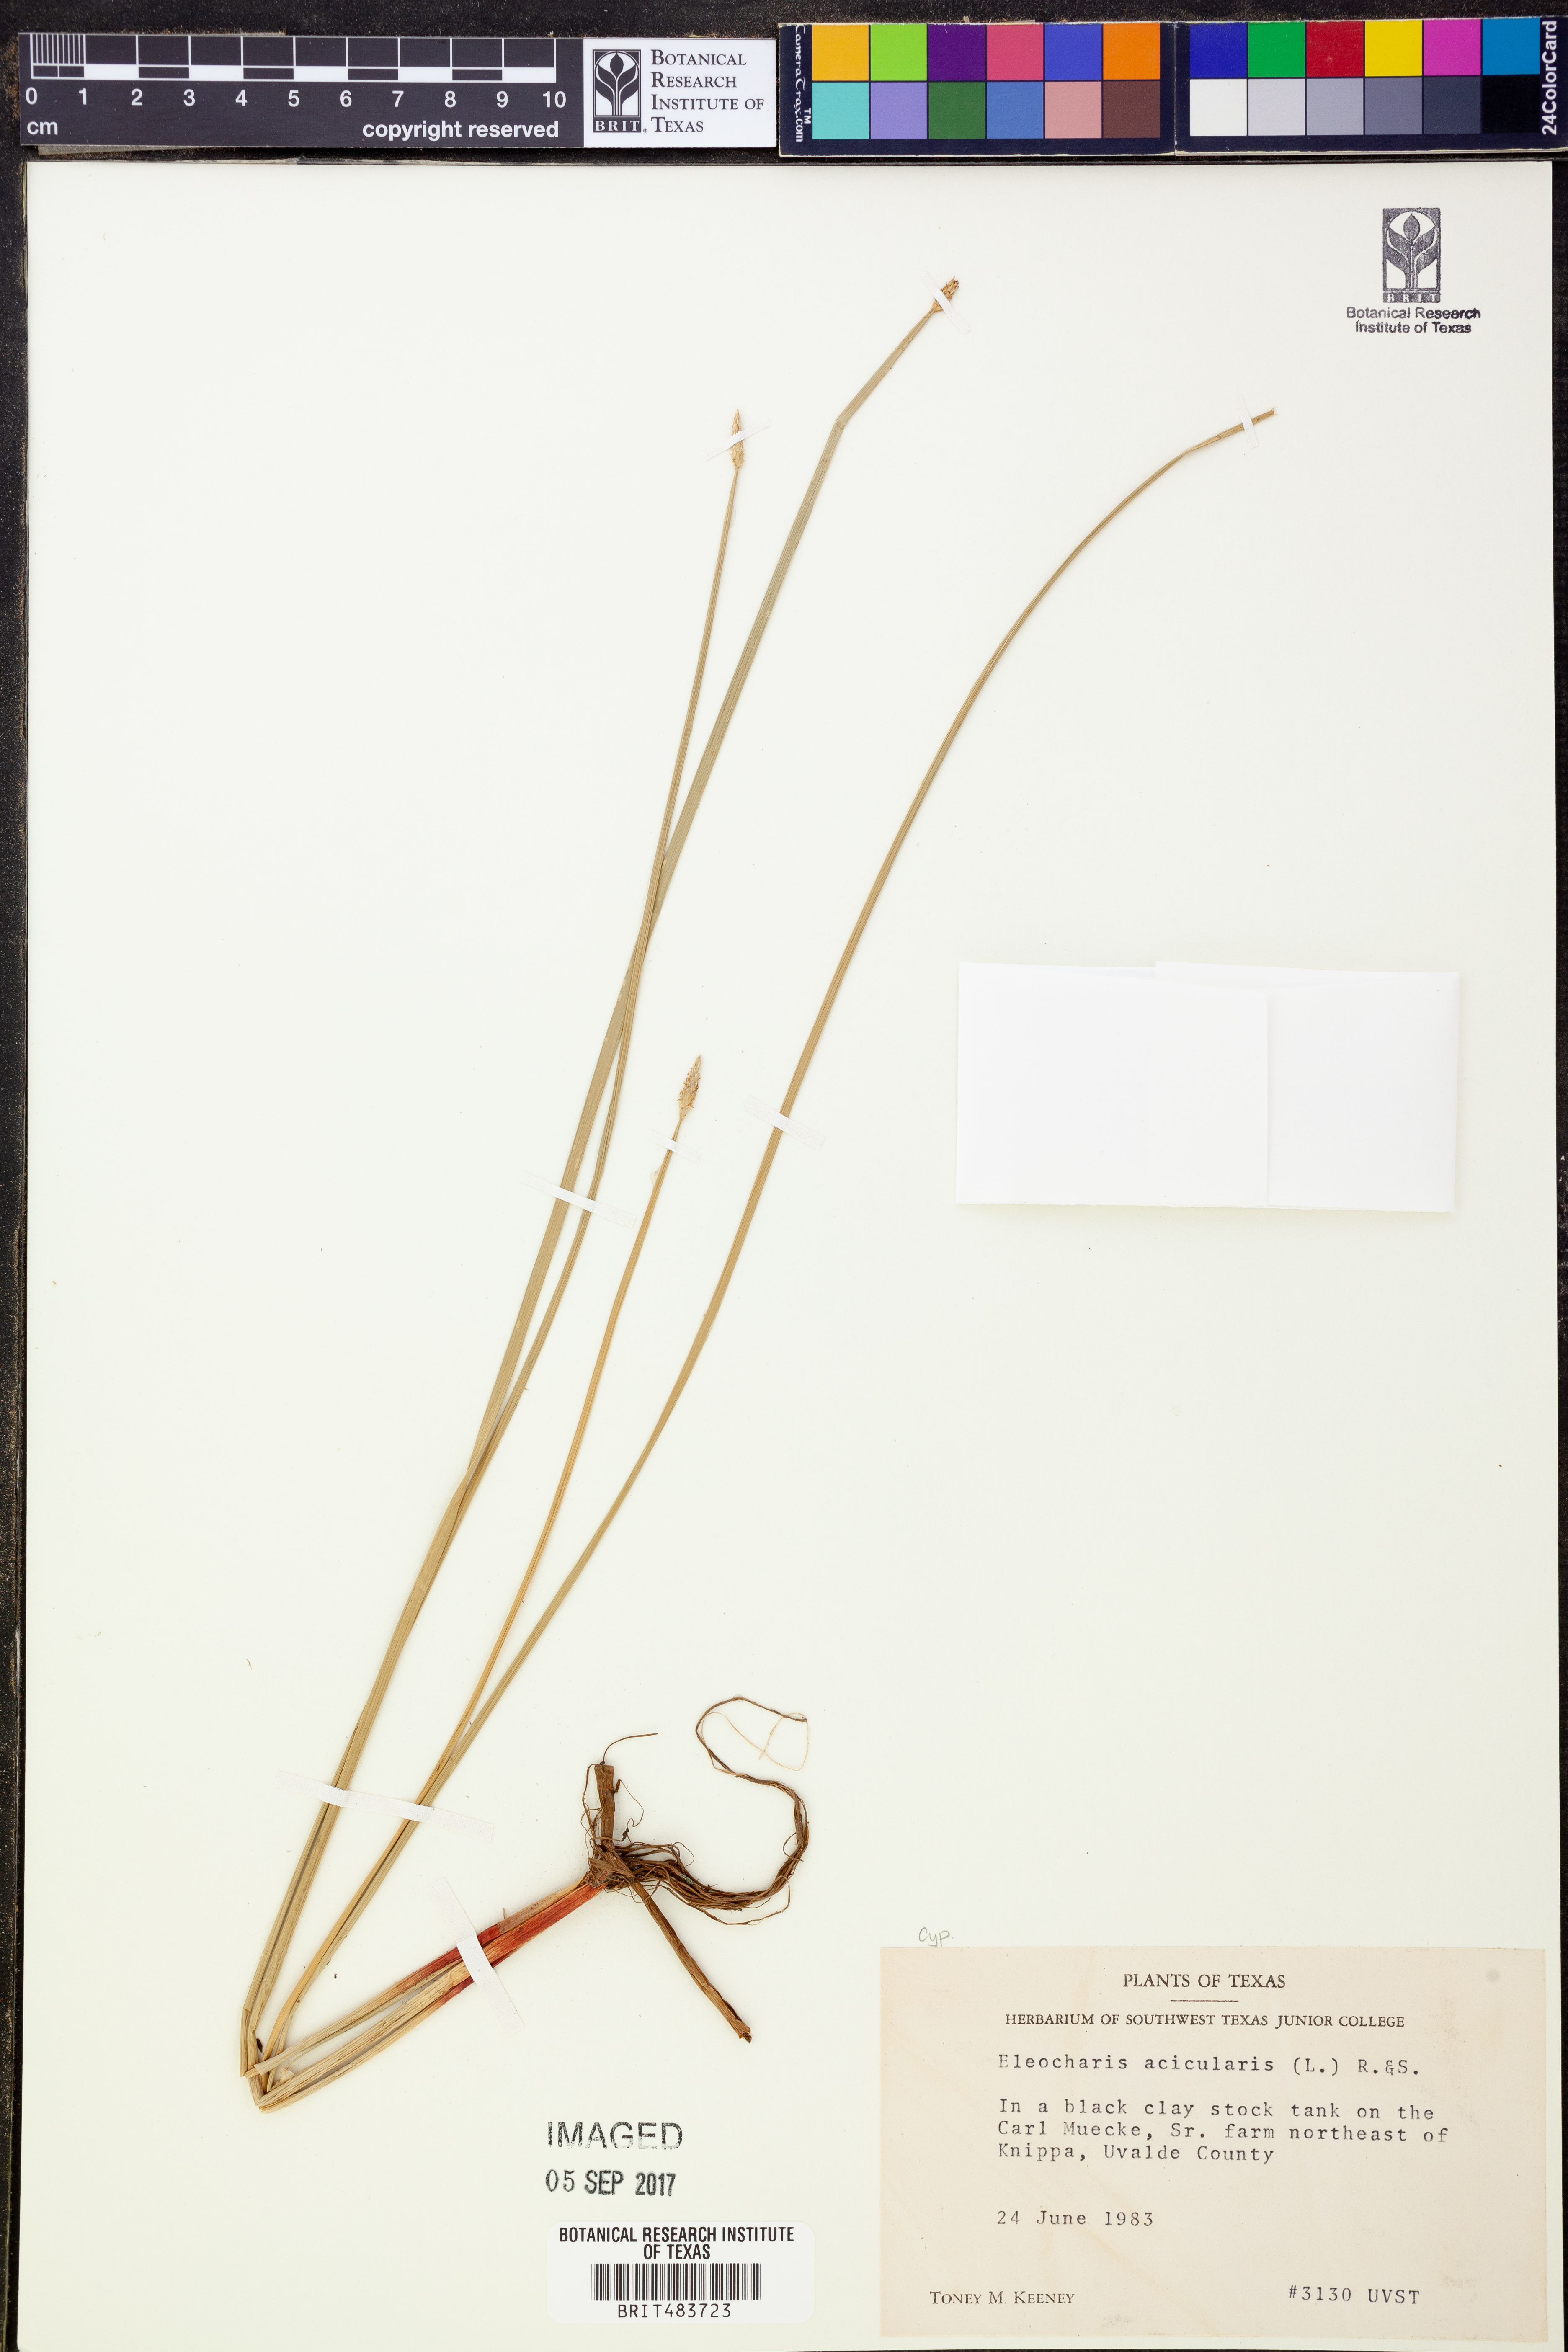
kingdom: Plantae
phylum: Tracheophyta
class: Liliopsida
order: Poales
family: Cyperaceae
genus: Eleocharis
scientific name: Eleocharis acicularis
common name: Needle spike-rush
